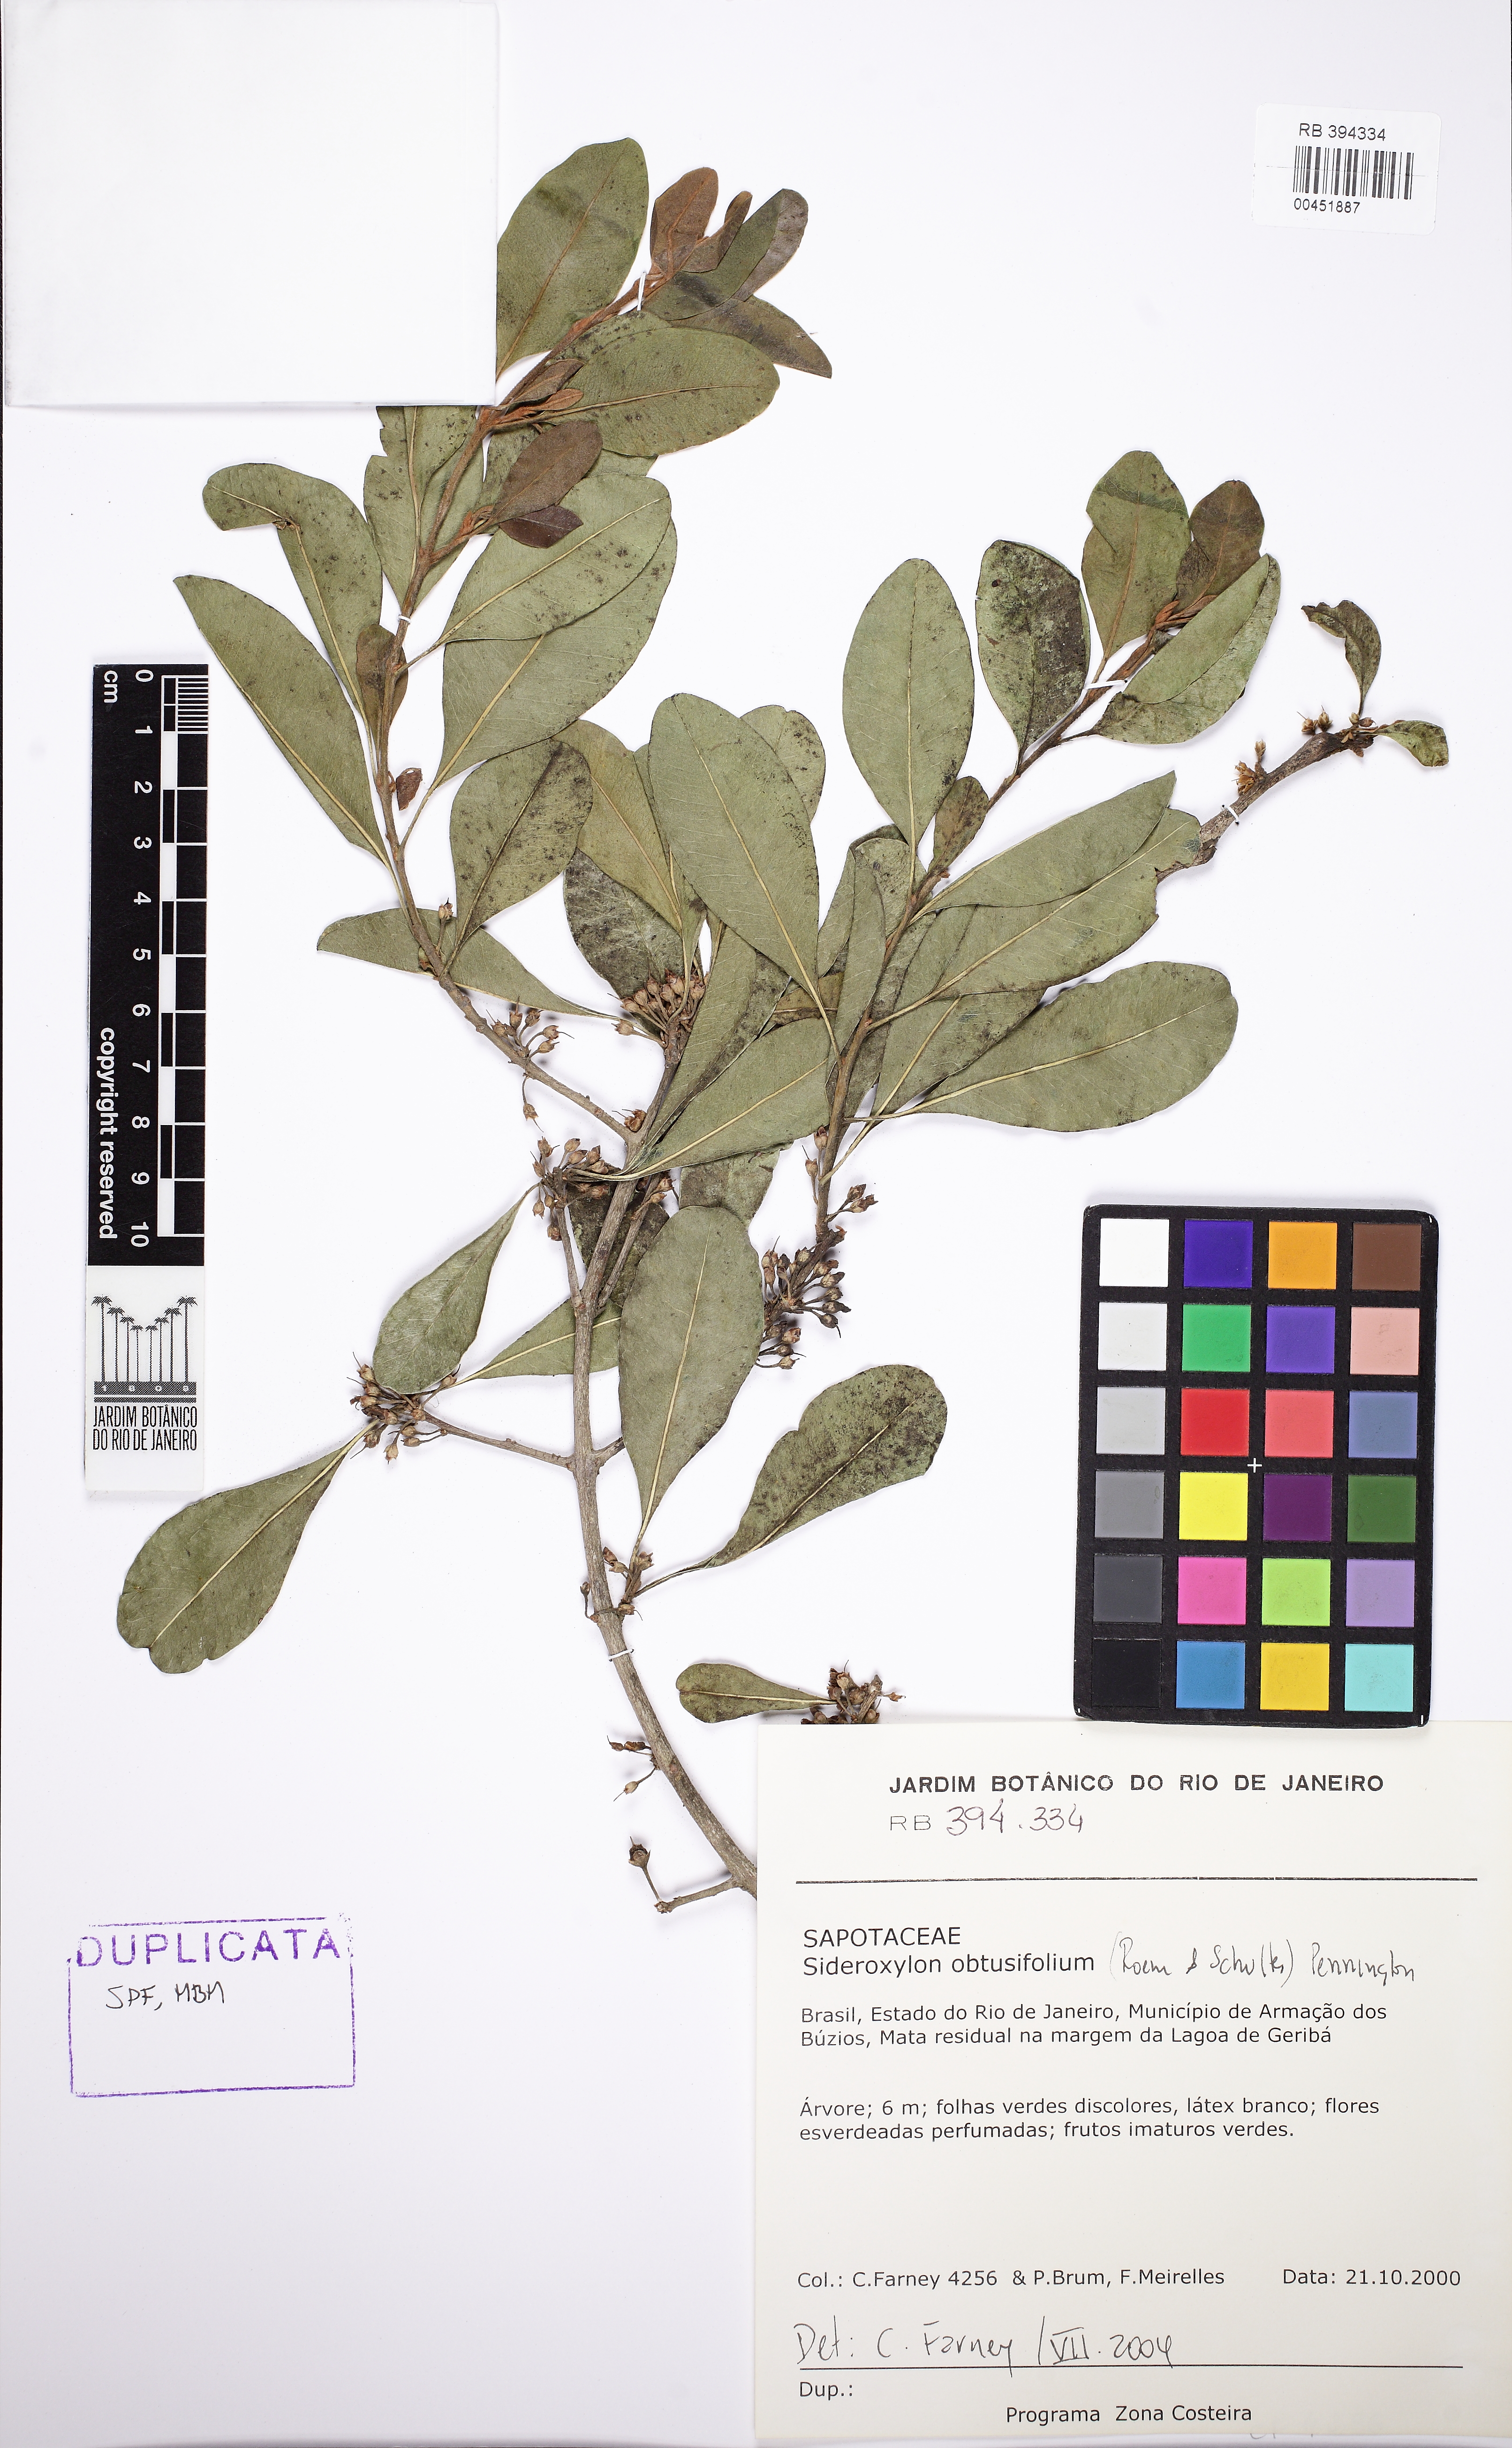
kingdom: Plantae
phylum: Tracheophyta
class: Magnoliopsida
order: Ericales
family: Sapotaceae
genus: Sideroxylon
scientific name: Sideroxylon obtusifolium
